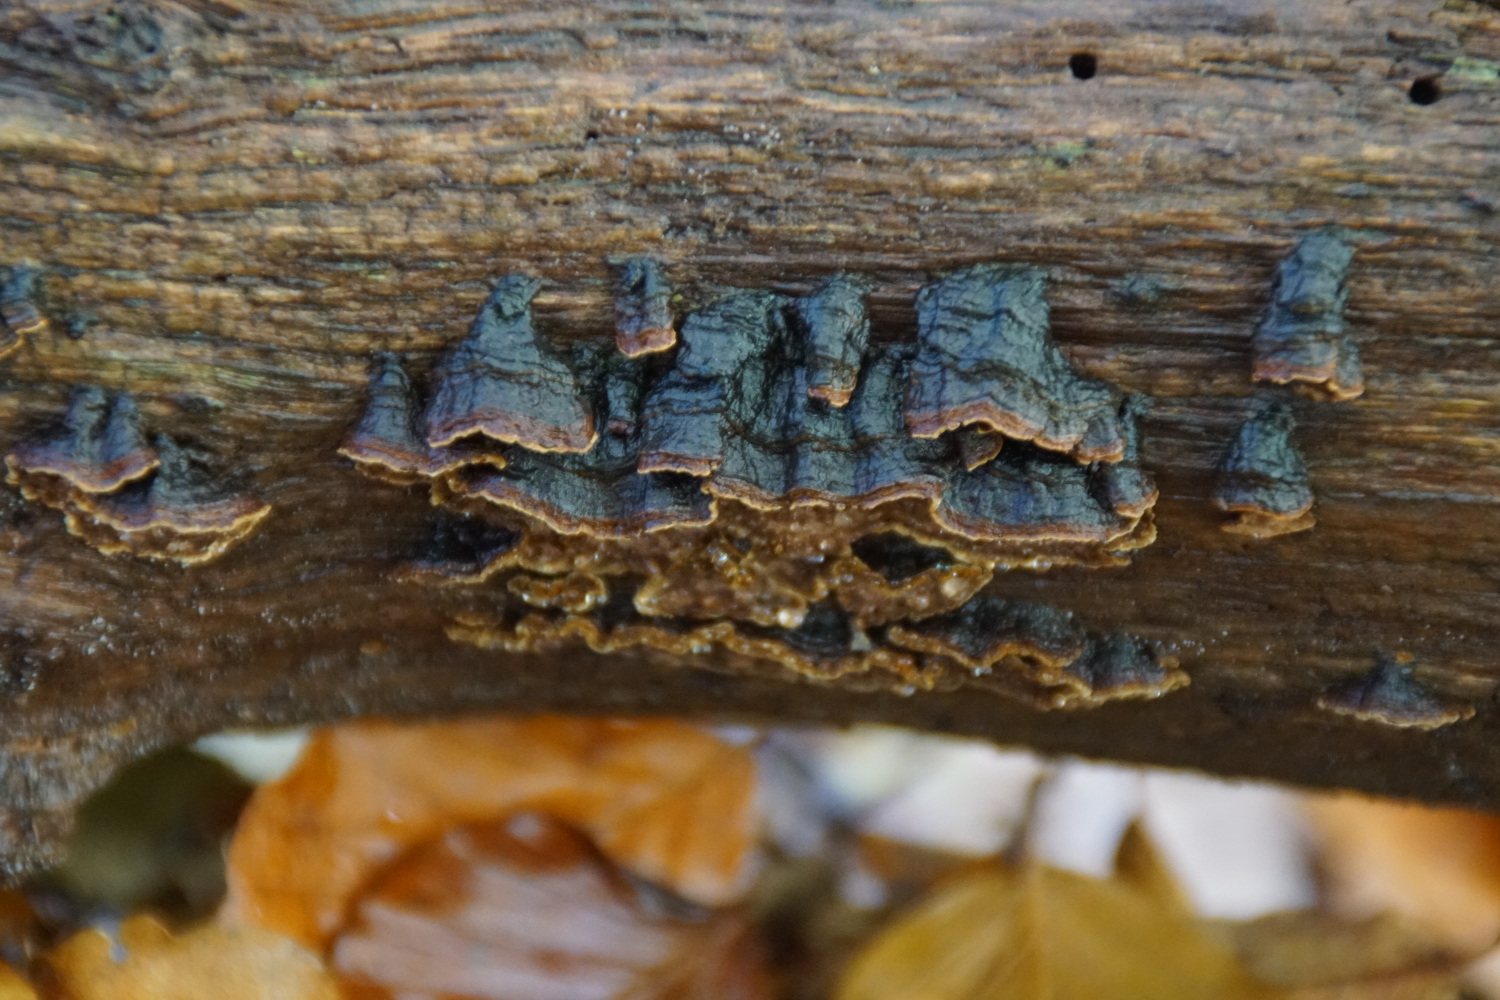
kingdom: Fungi
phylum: Basidiomycota
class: Agaricomycetes
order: Hymenochaetales
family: Hymenochaetaceae
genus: Hymenochaete
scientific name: Hymenochaete rubiginosa
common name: stiv ruslædersvamp
